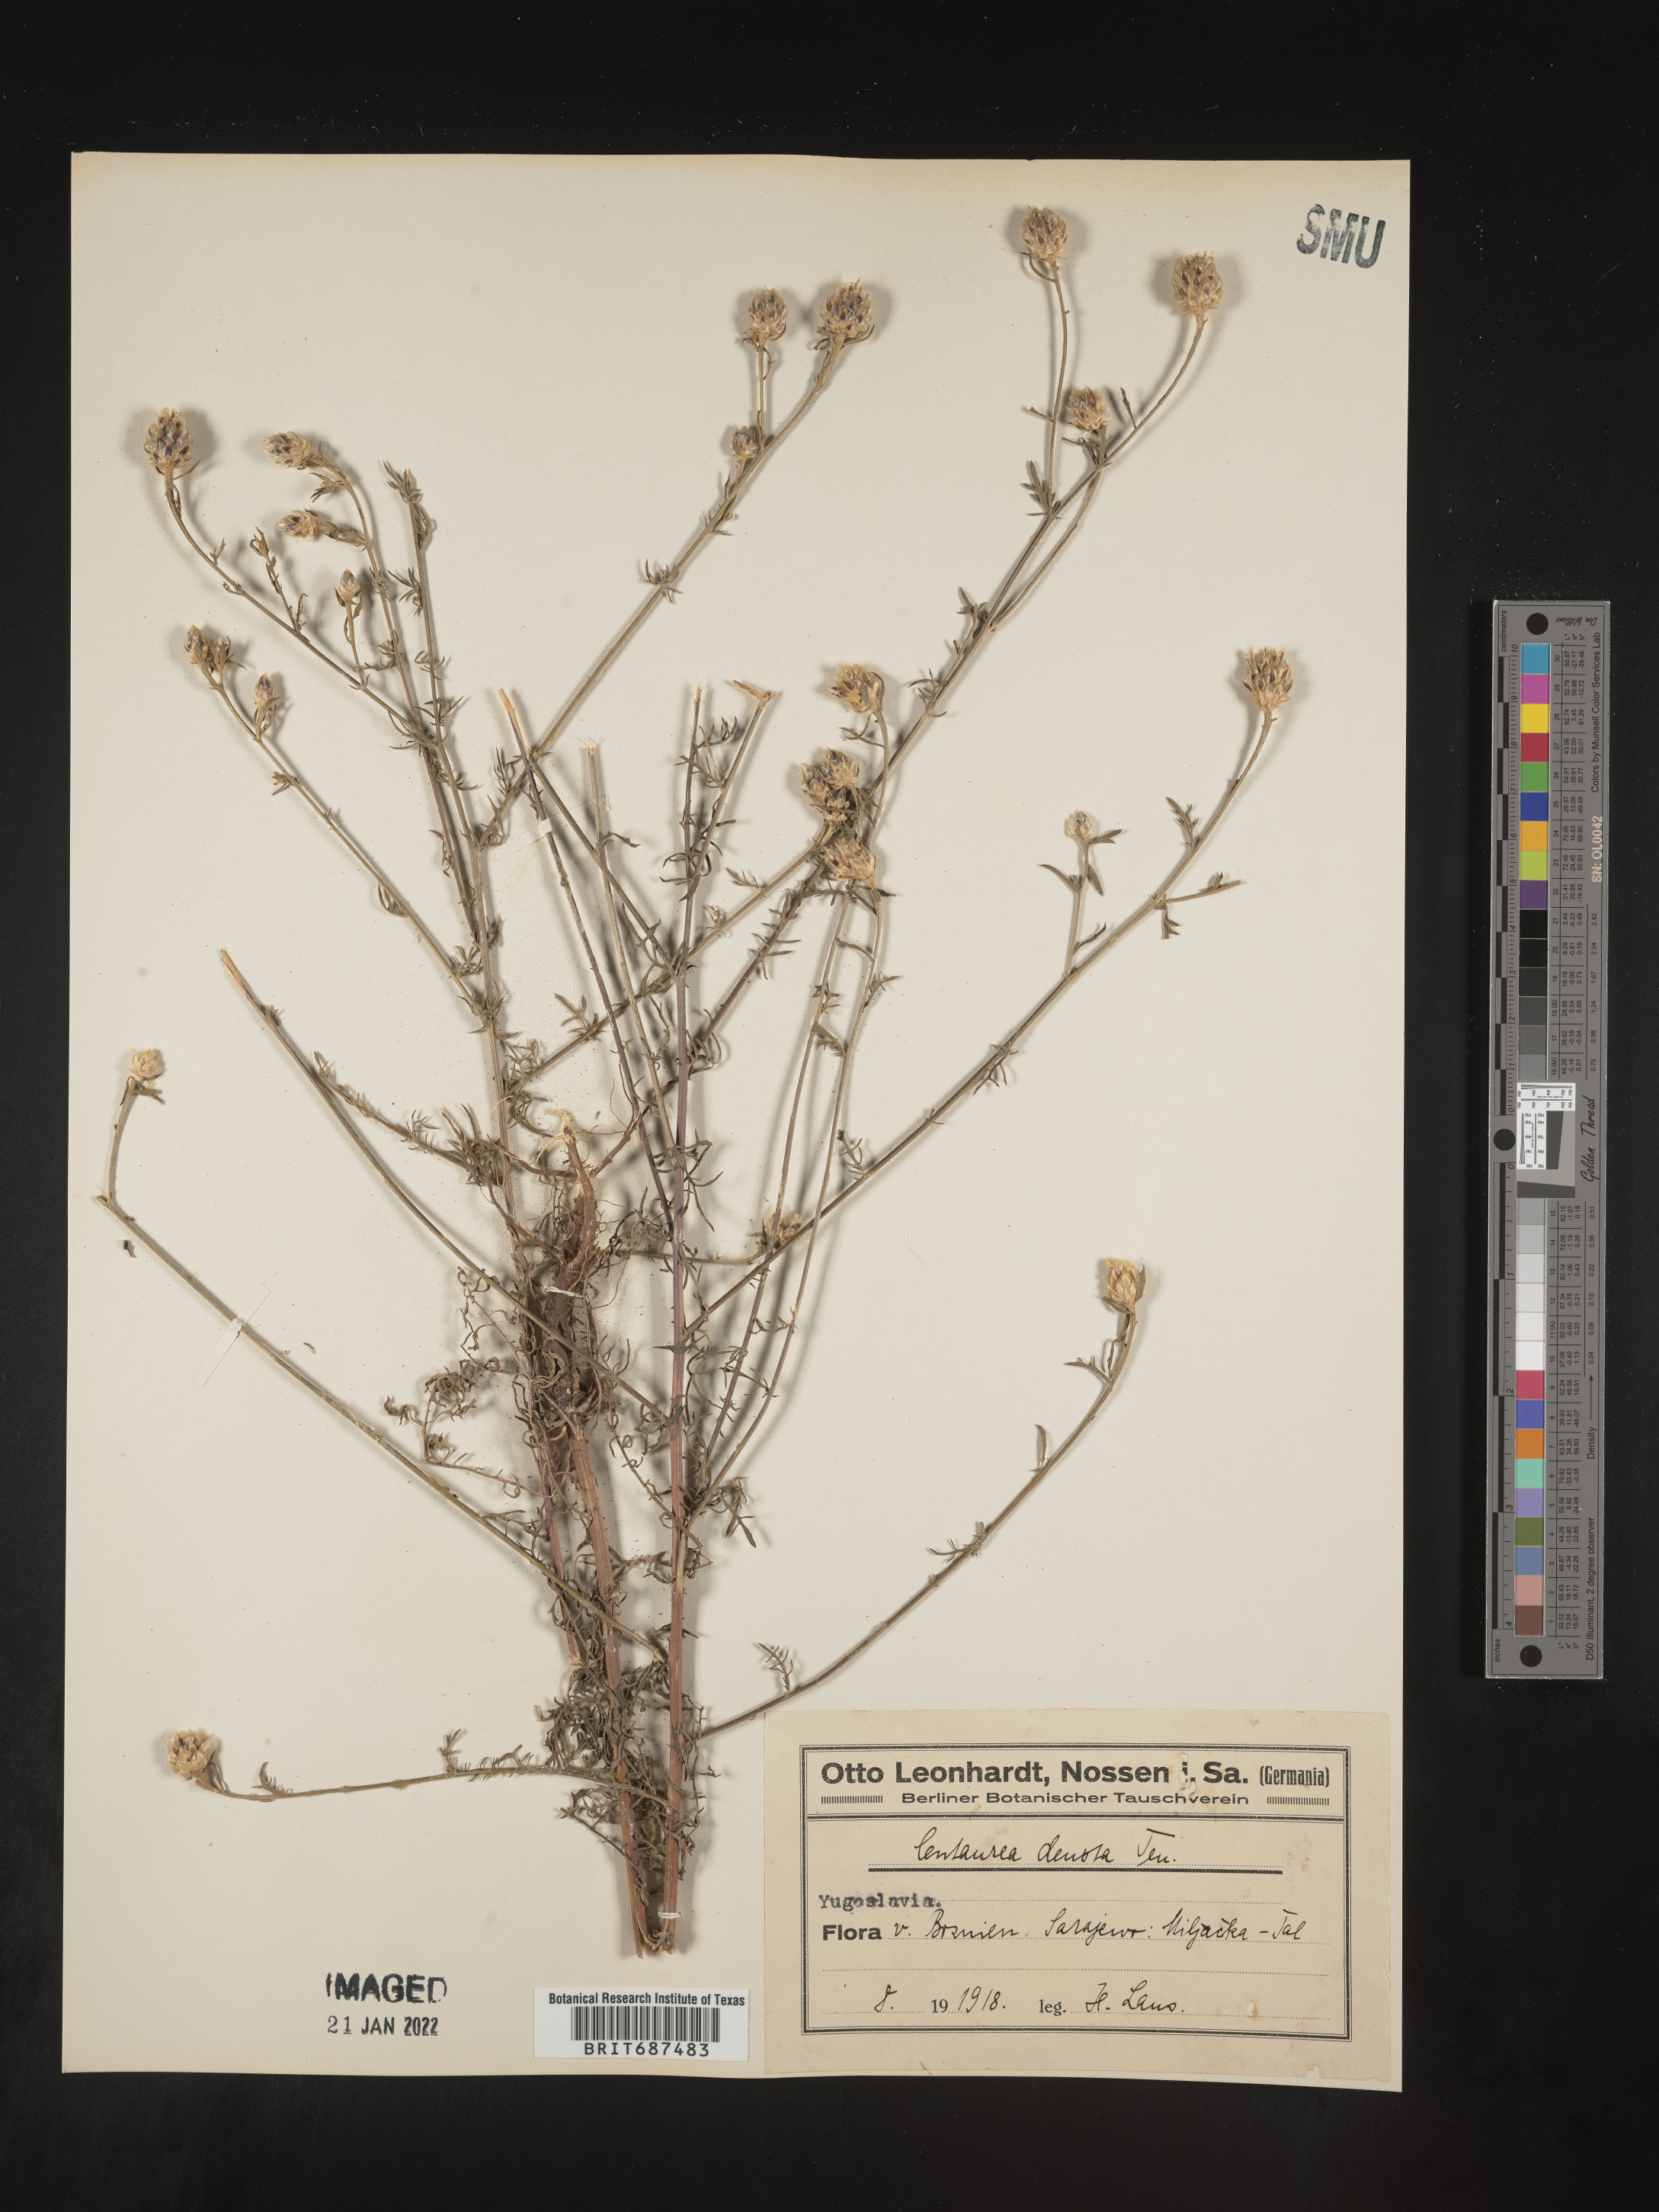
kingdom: Plantae
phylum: Tracheophyta
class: Magnoliopsida
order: Asterales
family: Asteraceae
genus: Centaurea
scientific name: Centaurea
